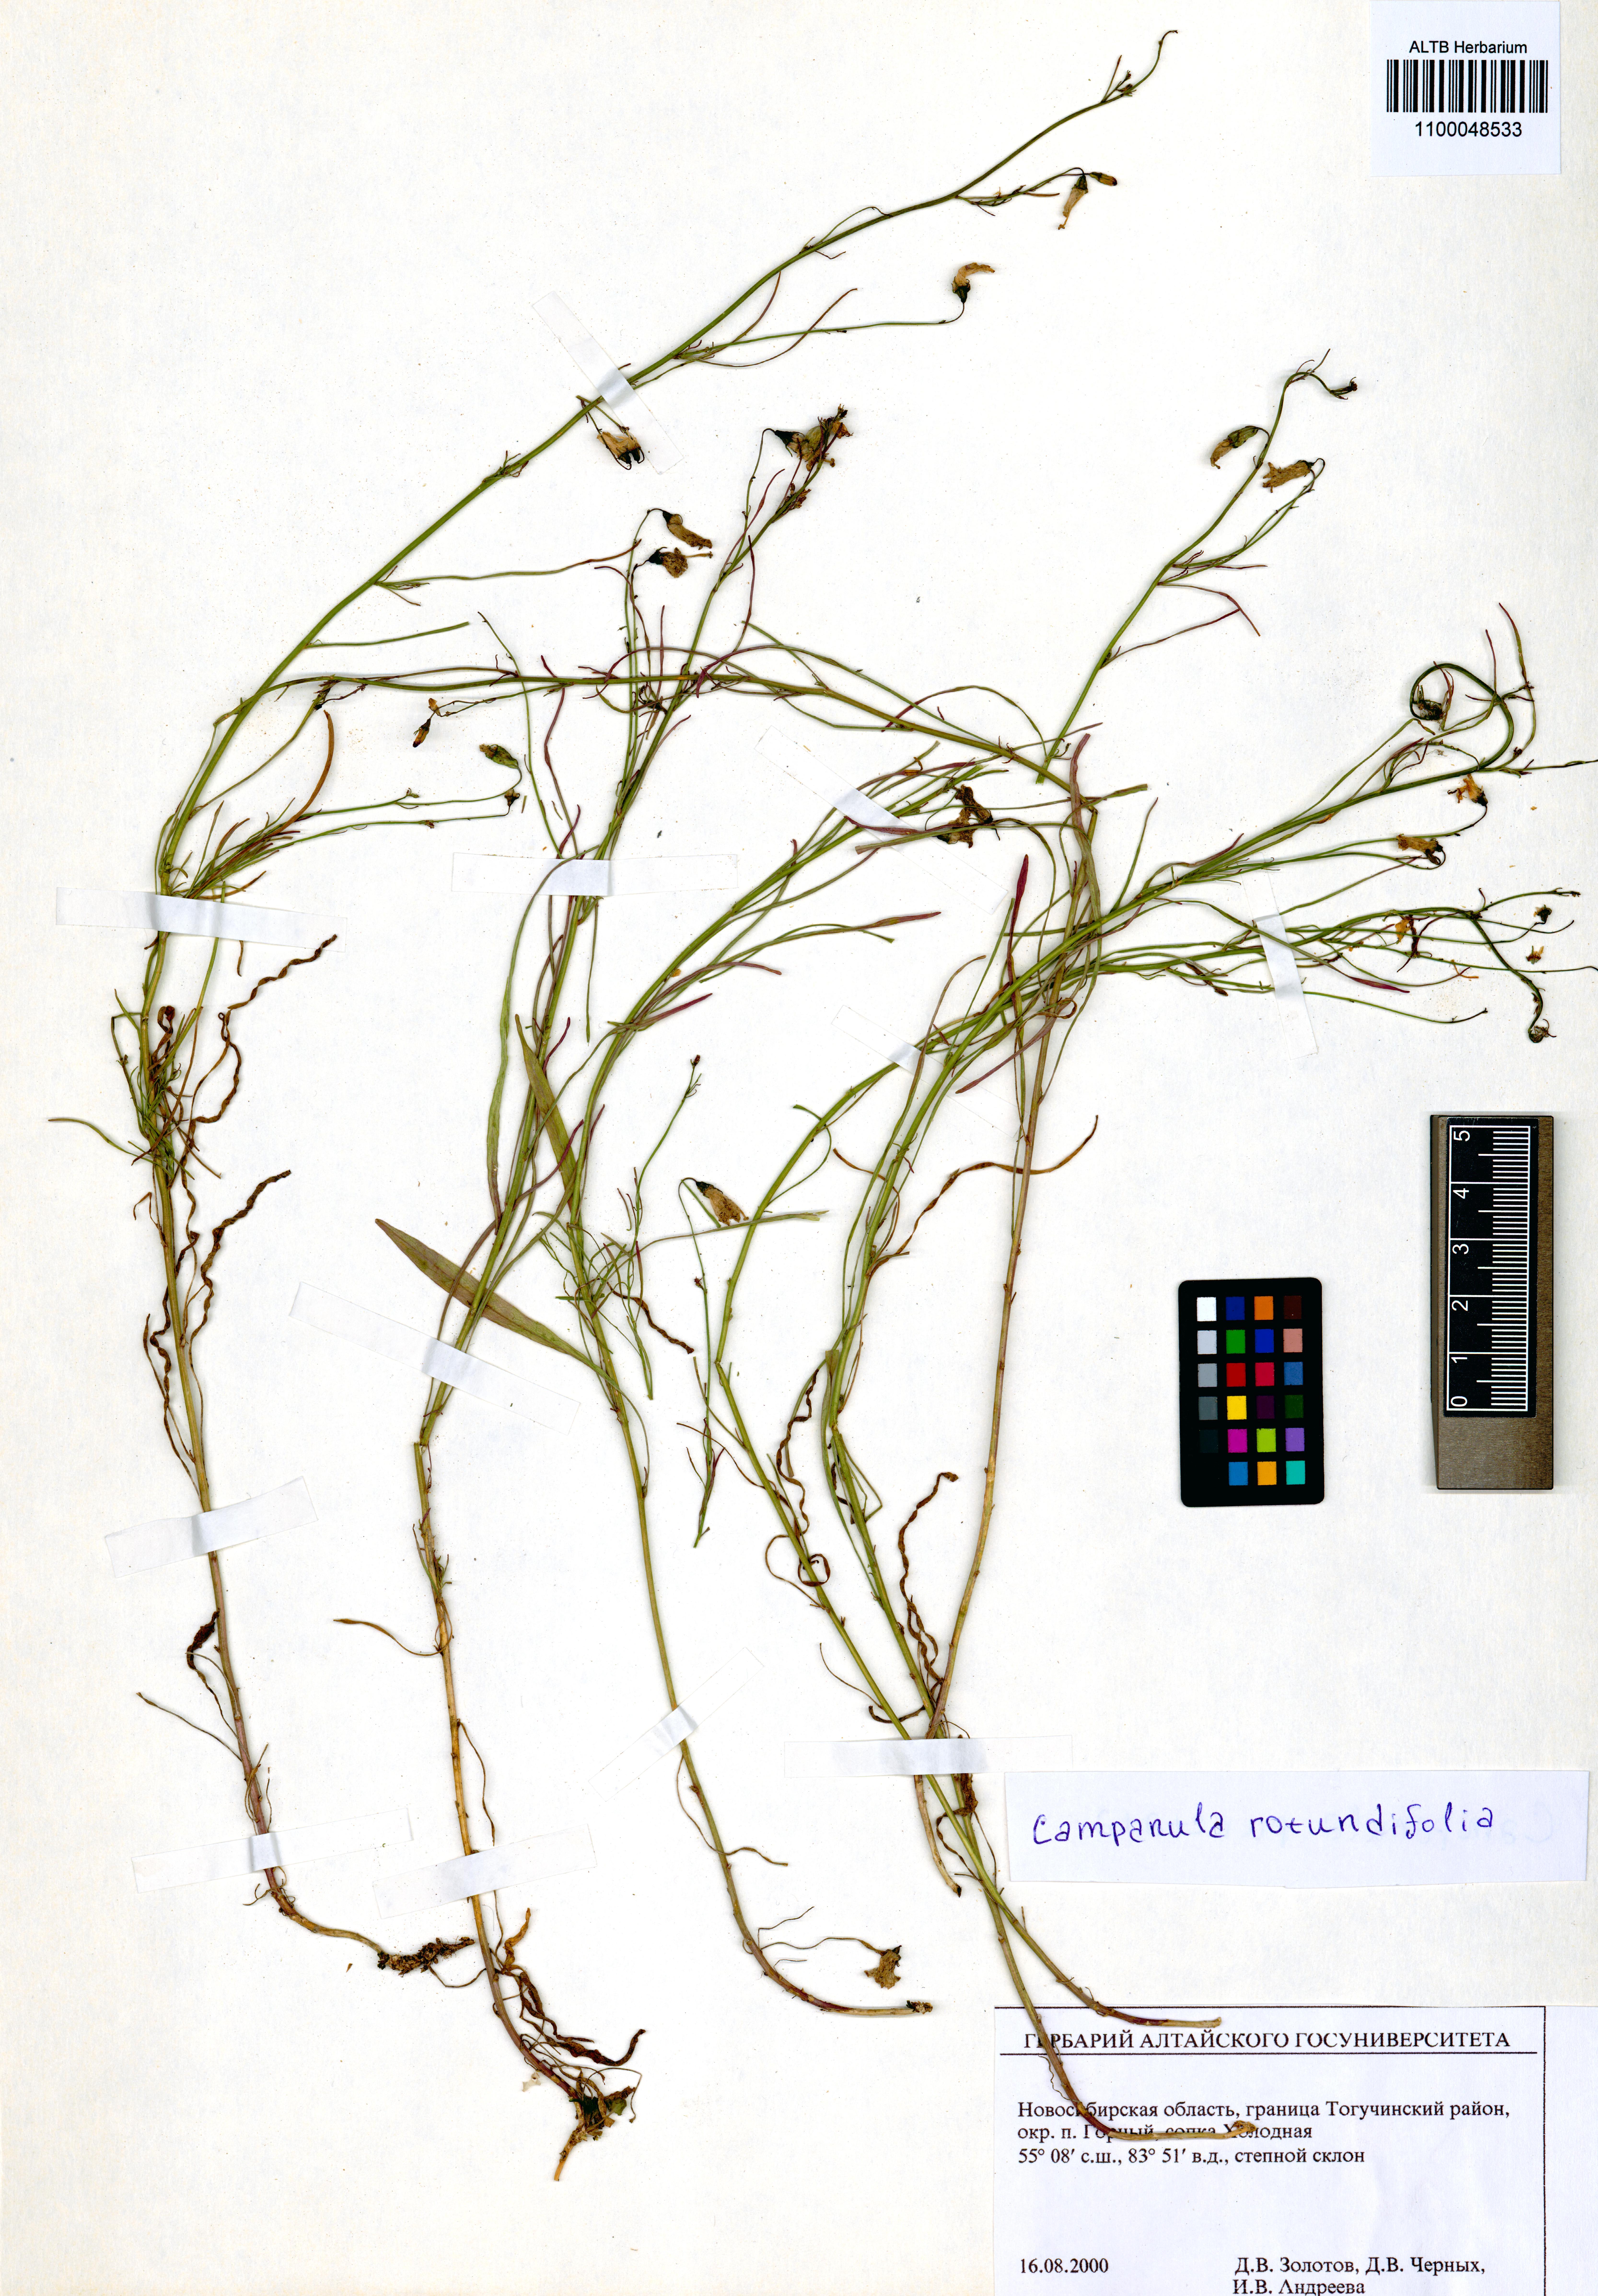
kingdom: Plantae
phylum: Tracheophyta
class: Magnoliopsida
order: Asterales
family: Campanulaceae
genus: Campanula
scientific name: Campanula rotundifolia
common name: Harebell
